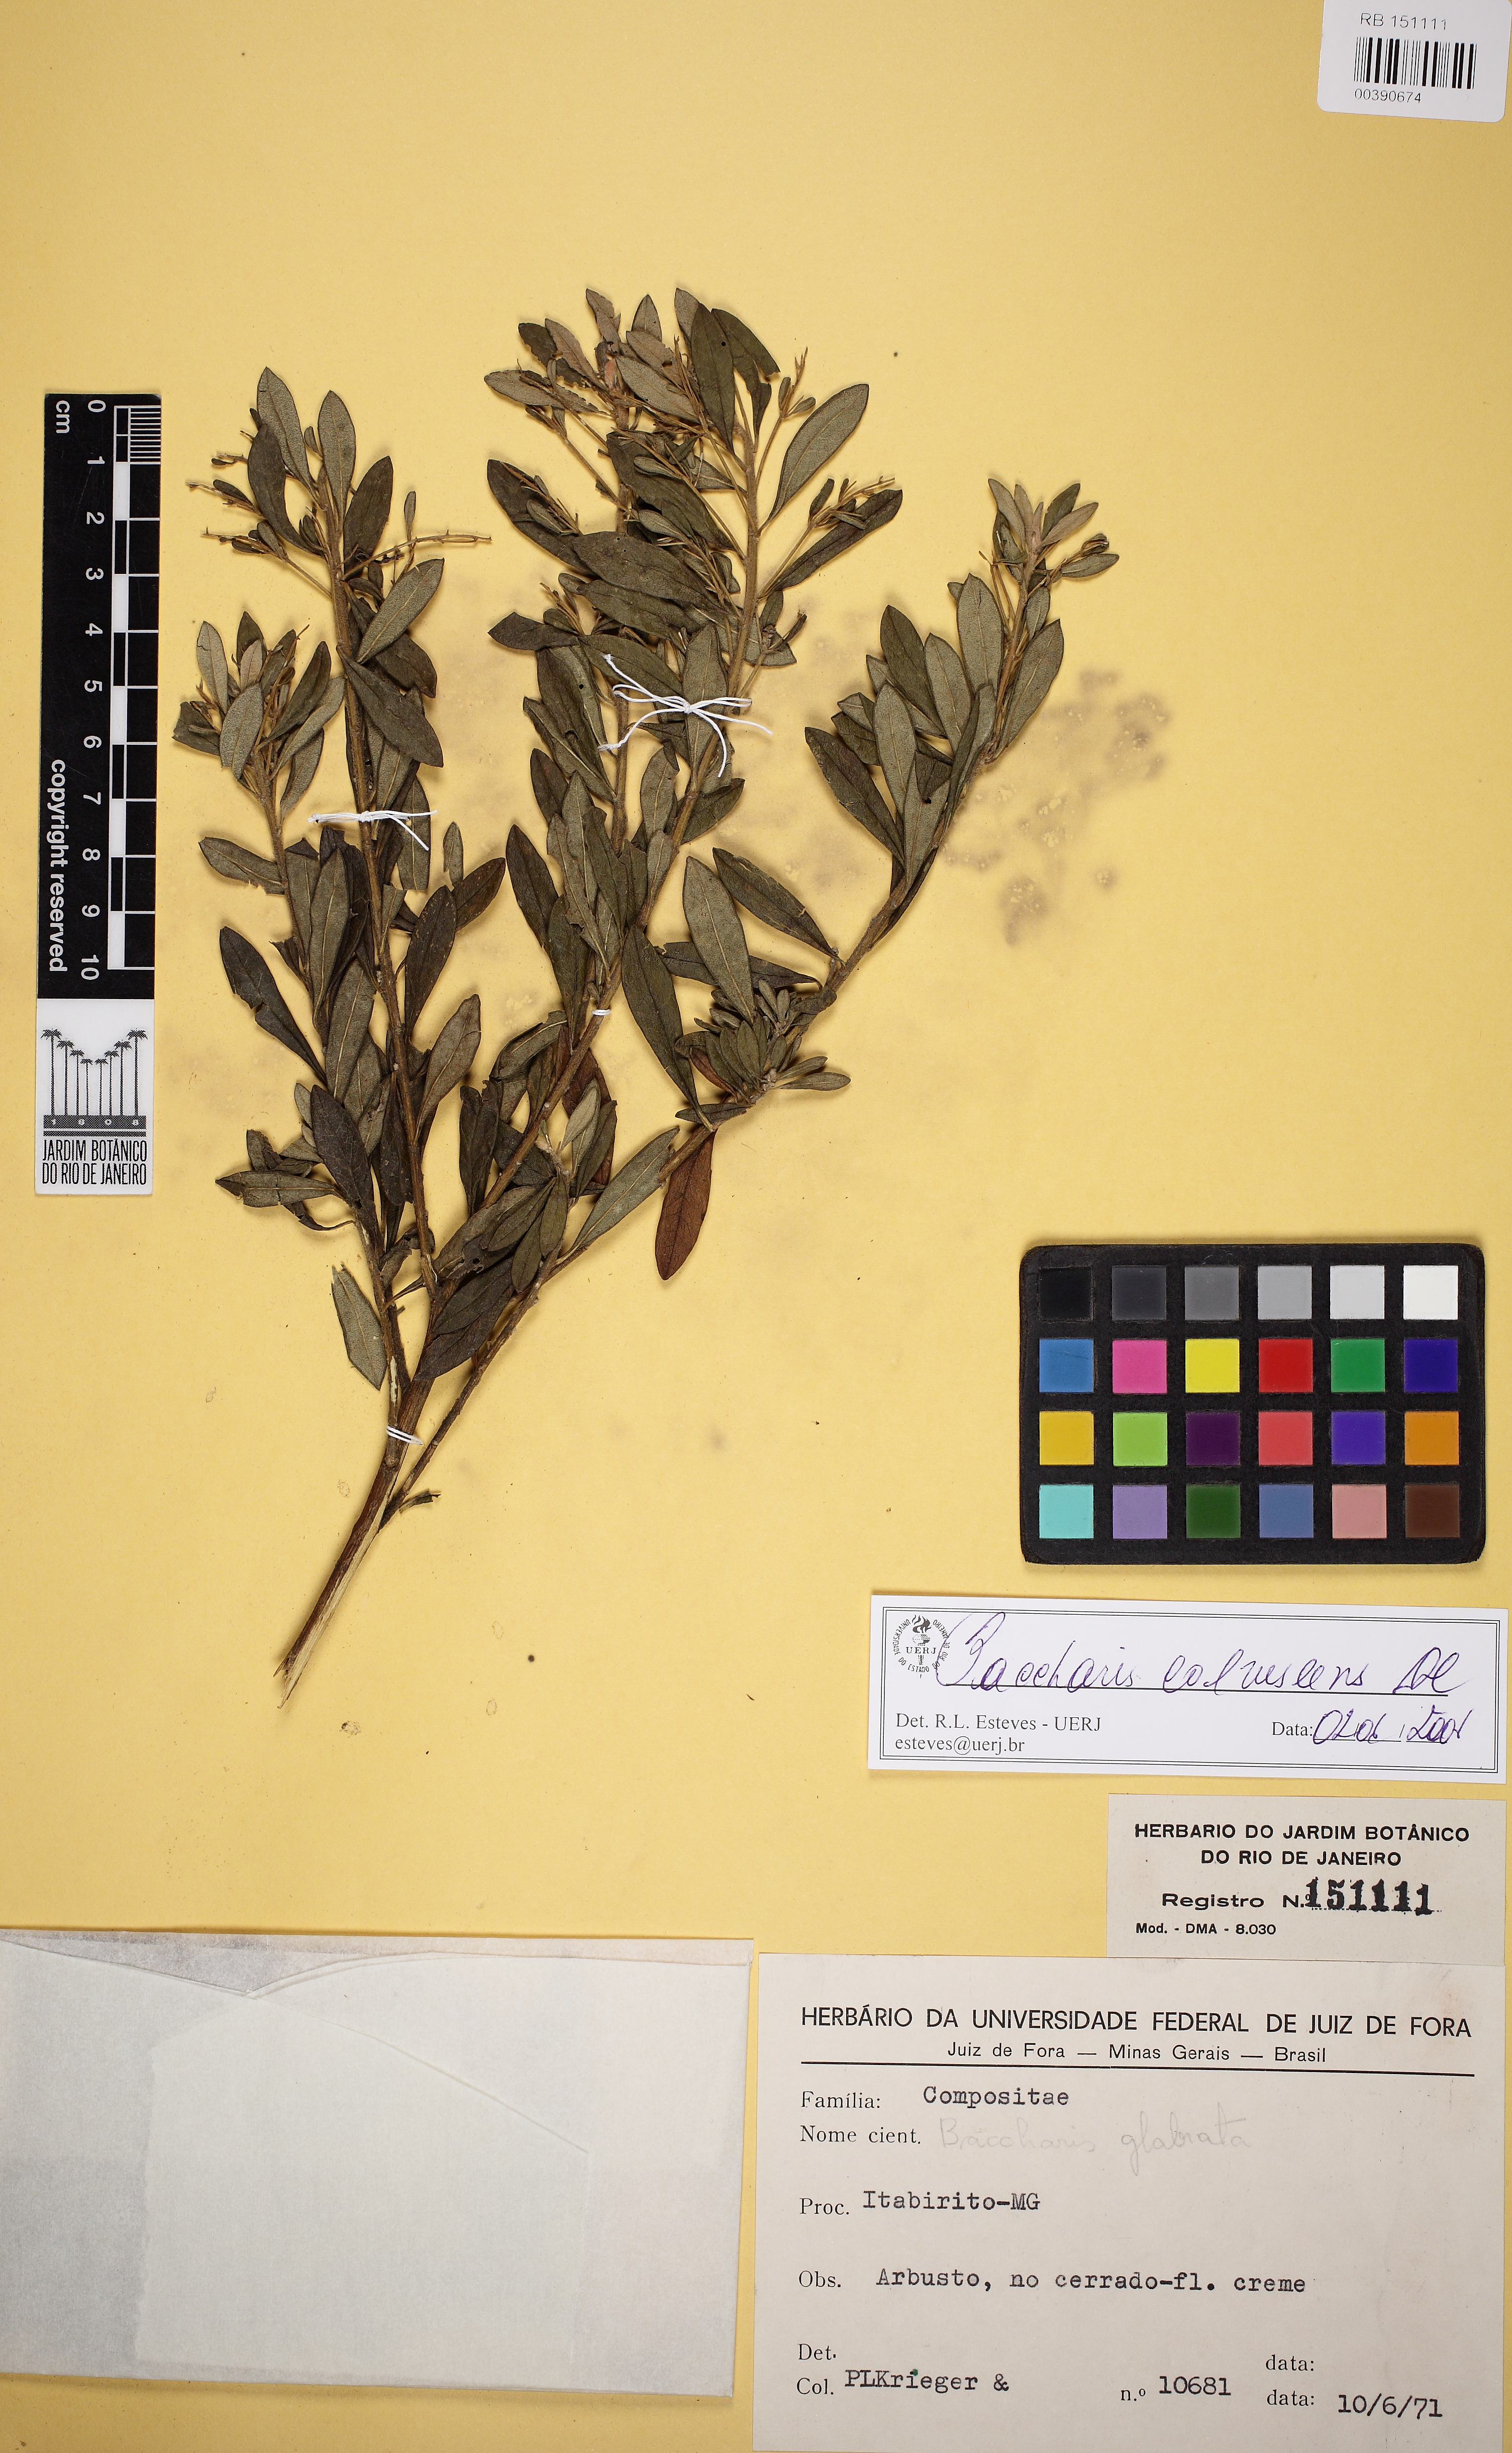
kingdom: Plantae
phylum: Tracheophyta
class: Magnoliopsida
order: Asterales
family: Asteraceae
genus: Baccharis
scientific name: Baccharis calvescens
